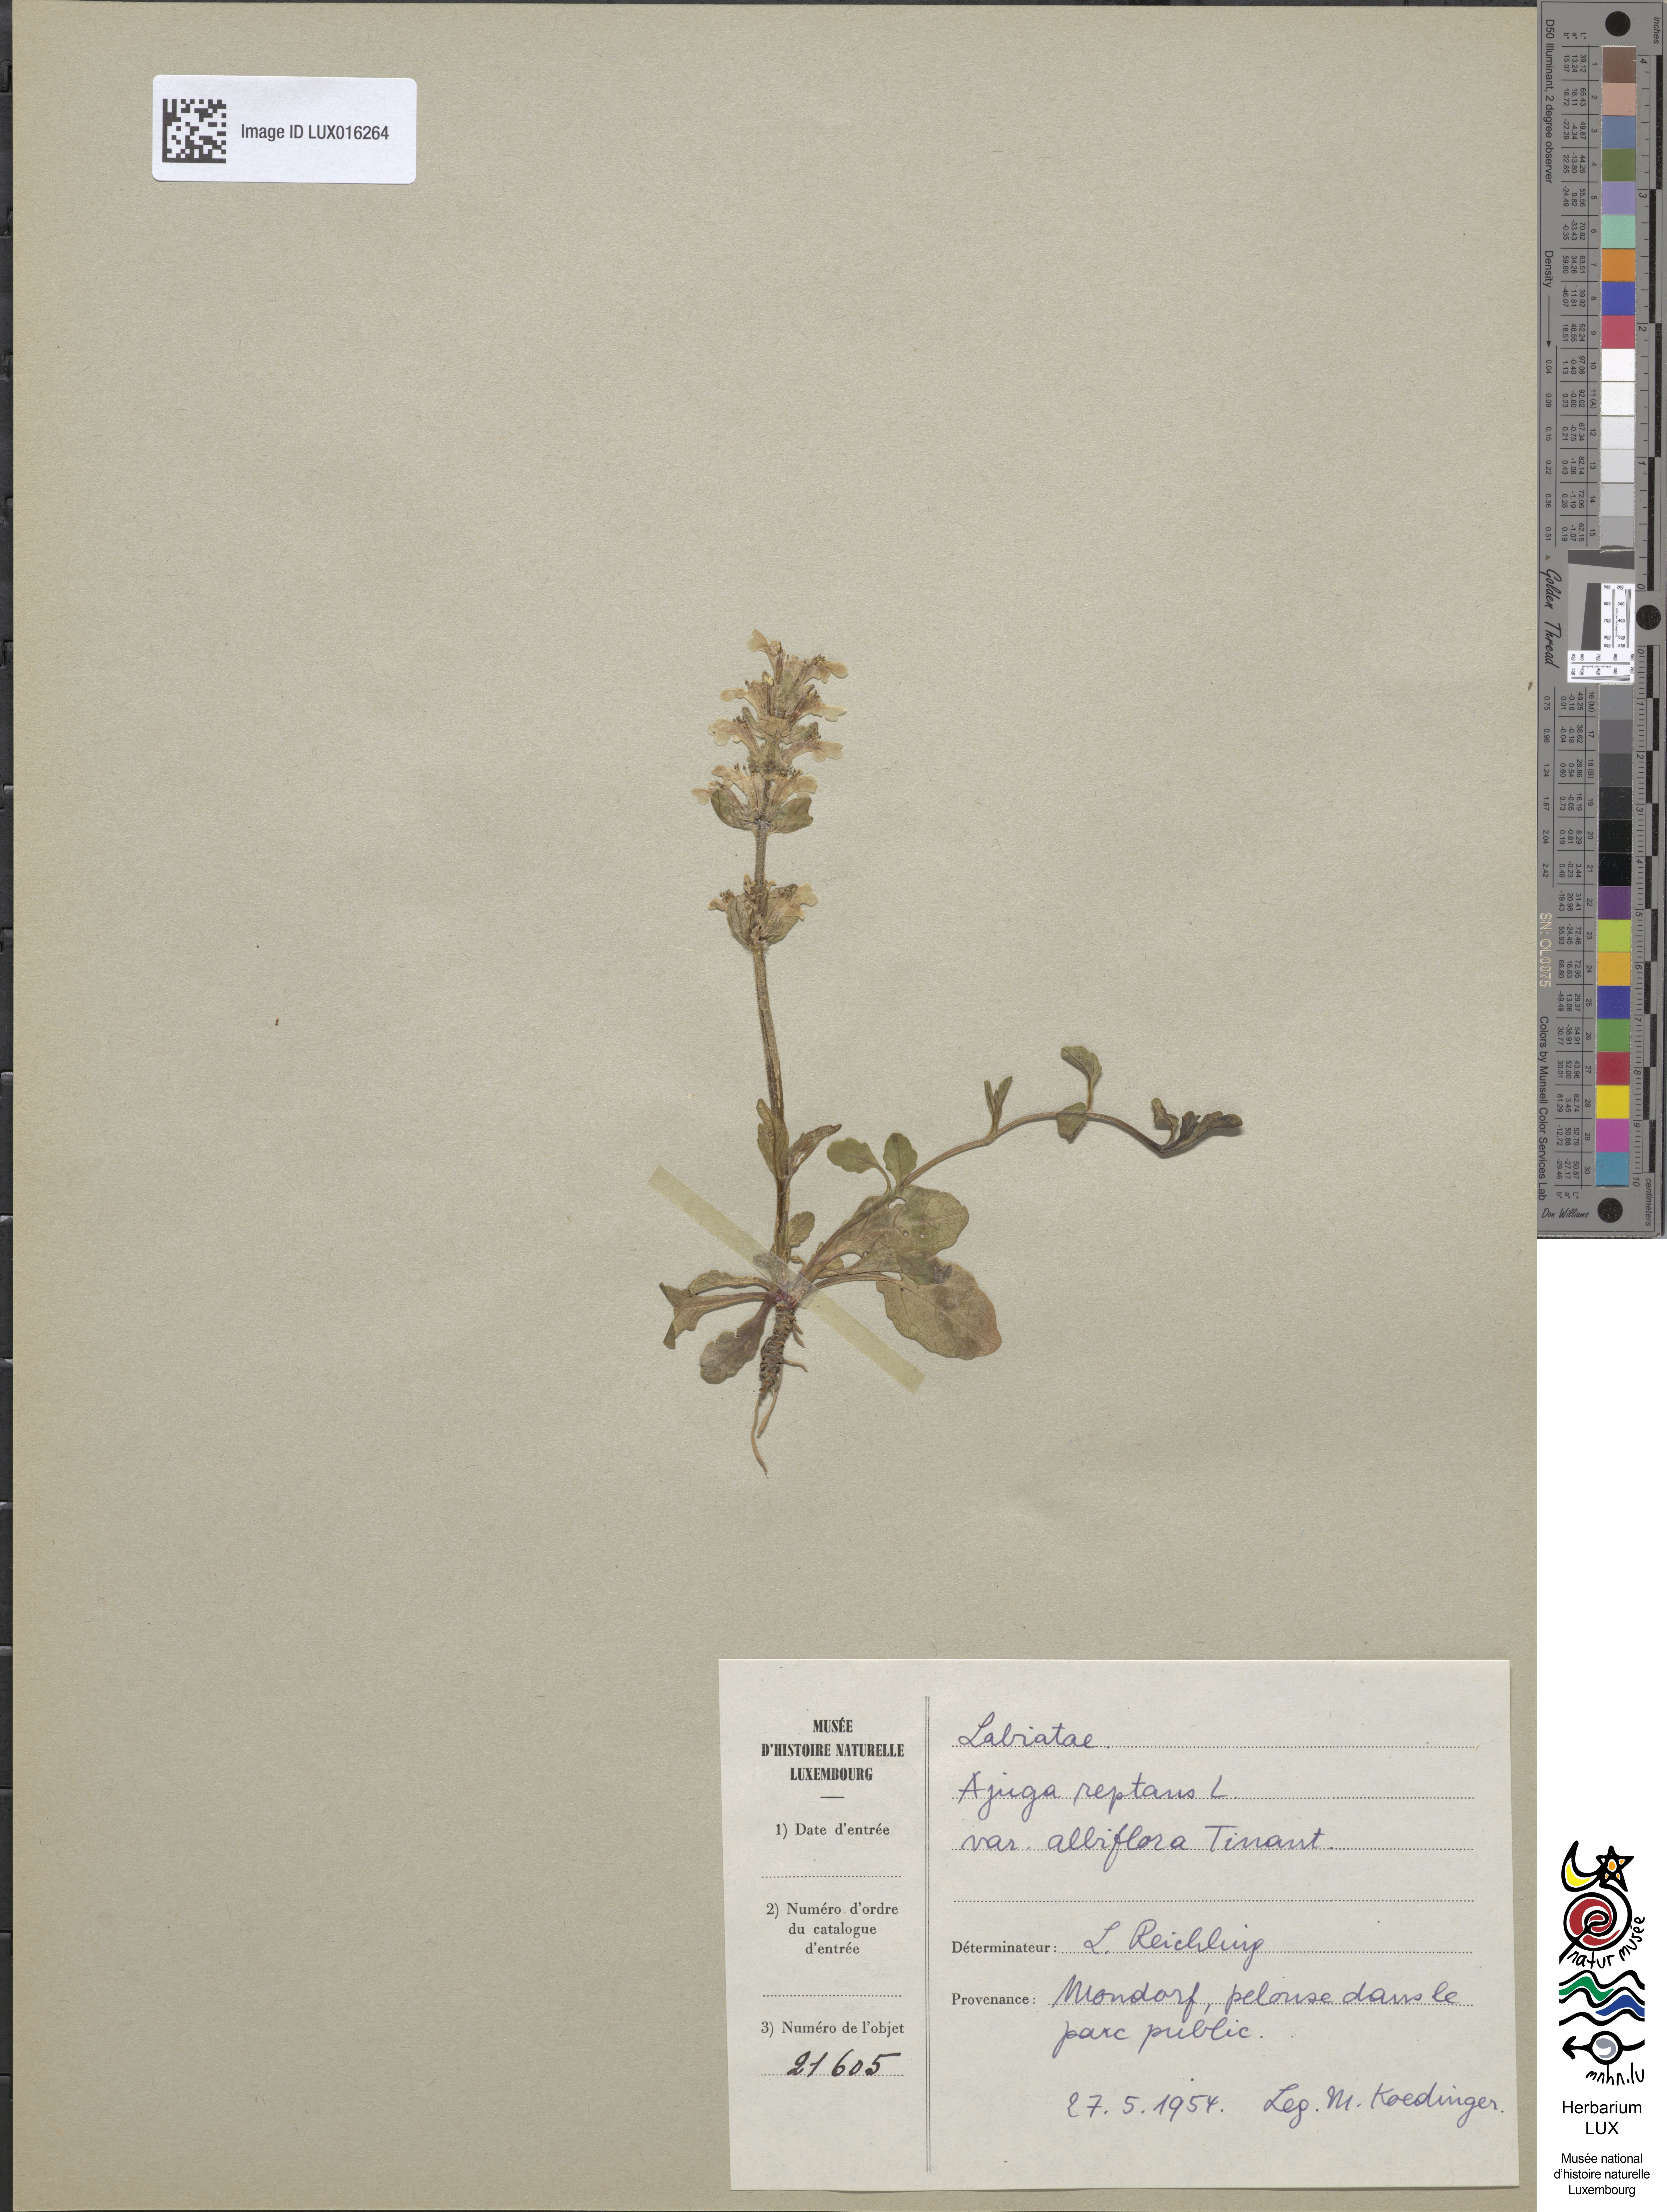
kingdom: Plantae
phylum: Tracheophyta
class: Magnoliopsida
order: Lamiales
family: Lamiaceae
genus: Ajuga
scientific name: Ajuga reptans
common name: Bugle
